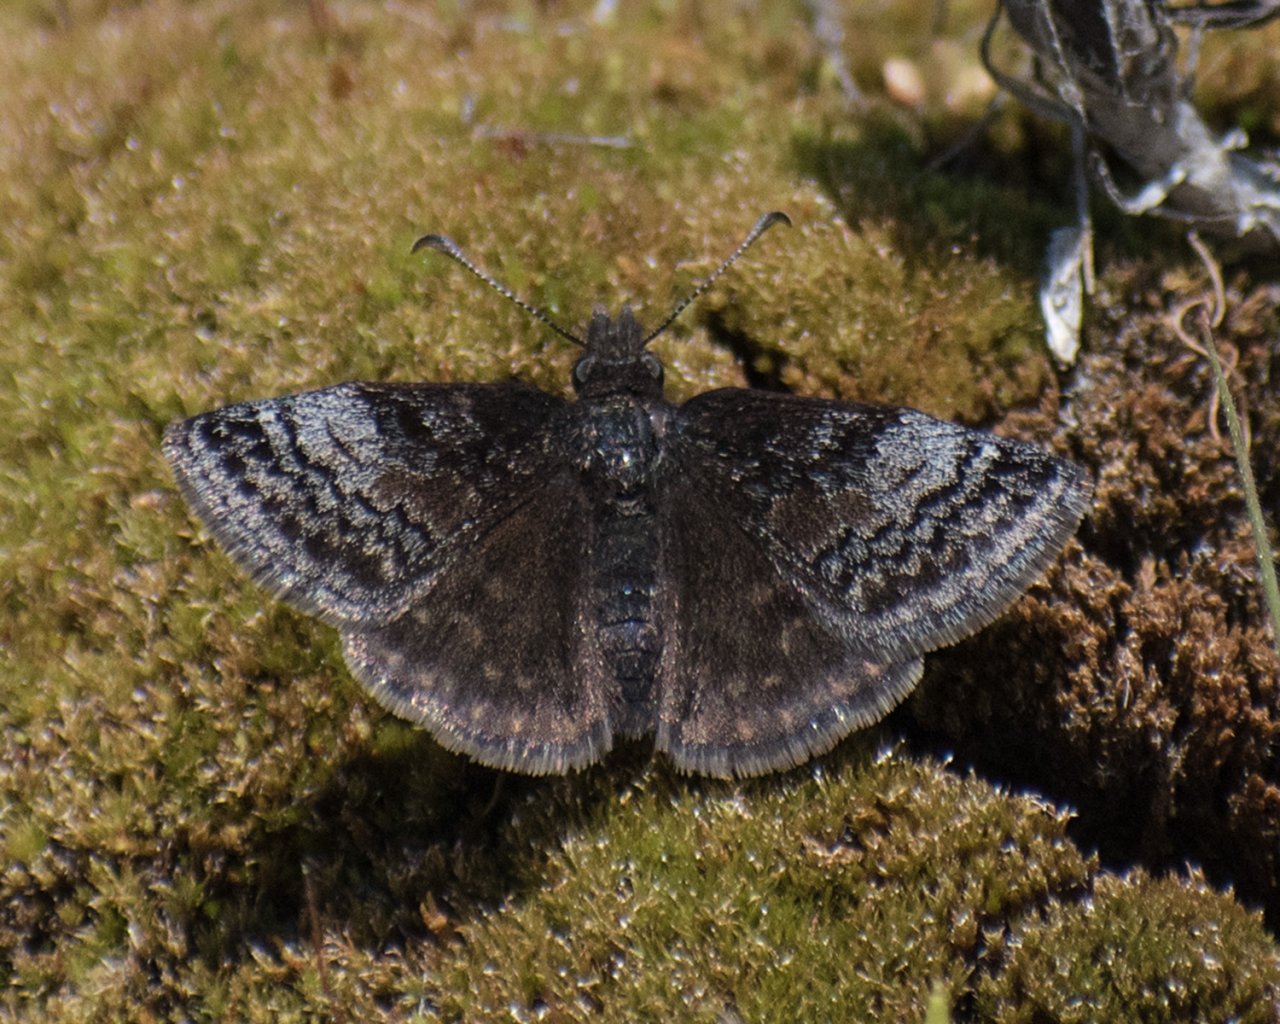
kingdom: Animalia
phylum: Arthropoda
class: Insecta
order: Lepidoptera
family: Hesperiidae
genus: Erynnis
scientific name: Erynnis icelus
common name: Dreamy Duskywing
